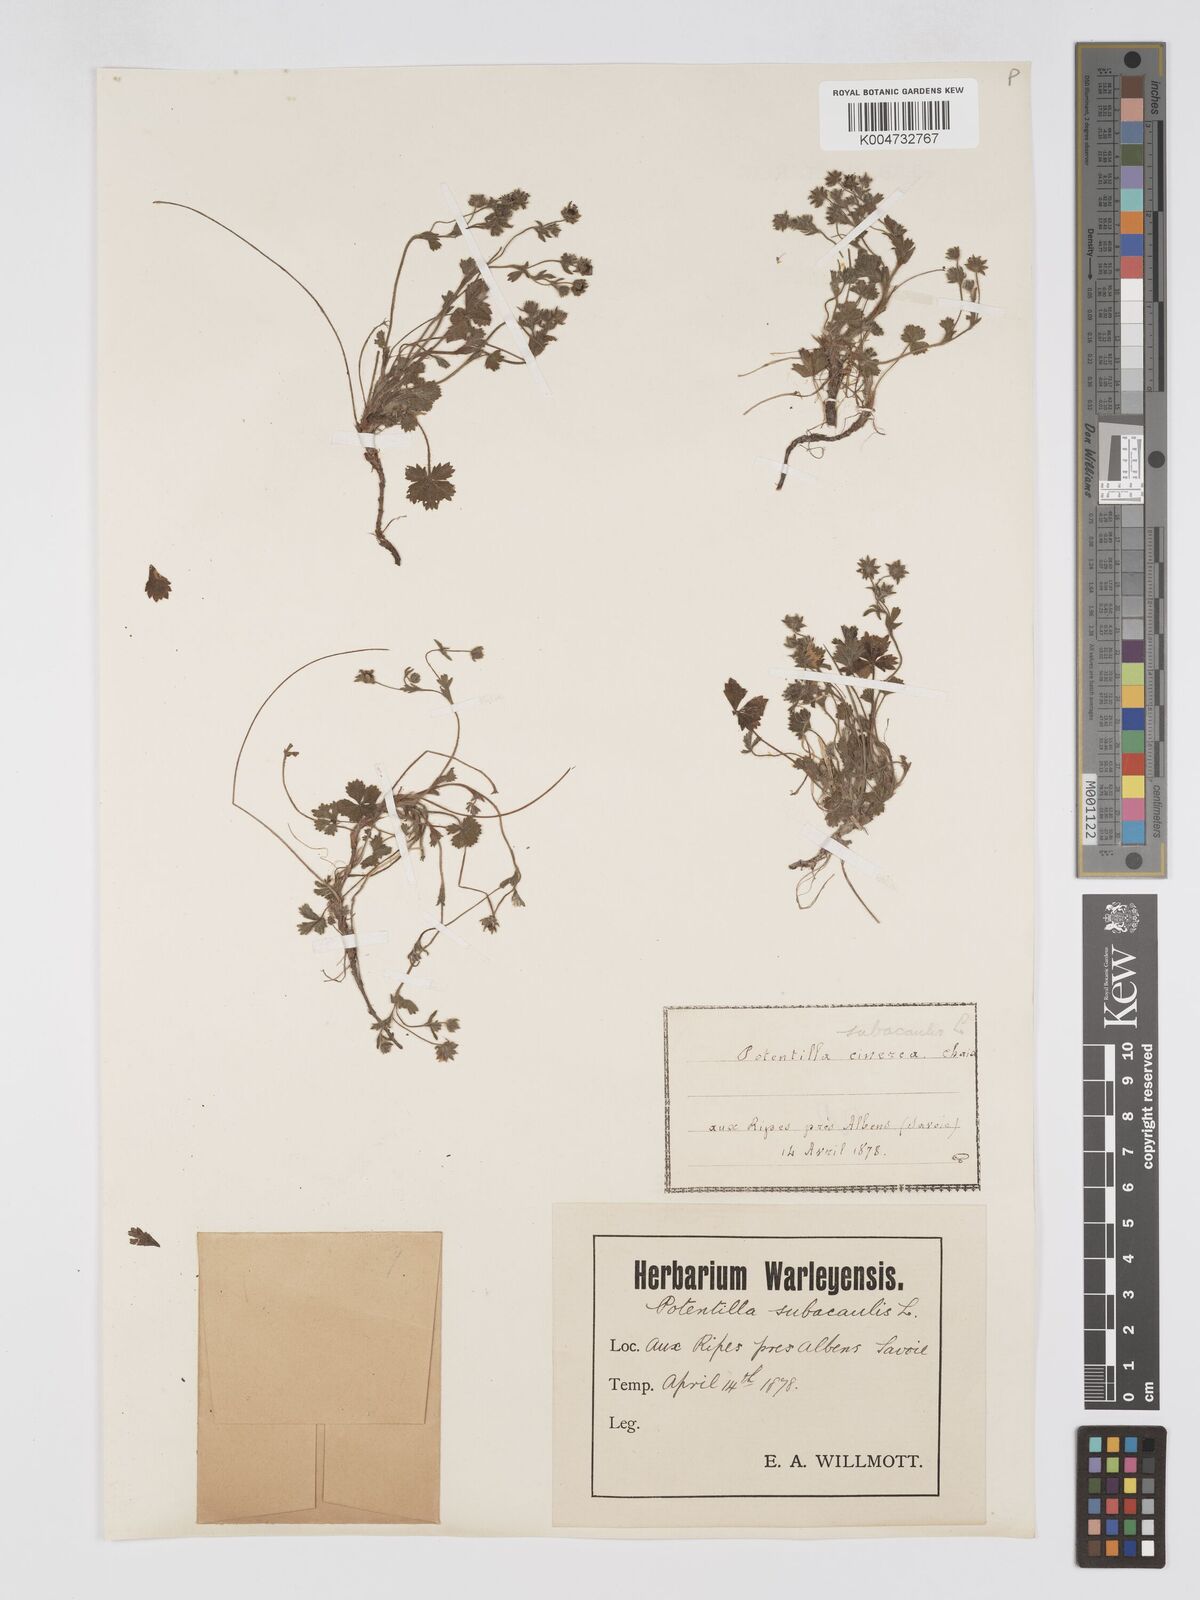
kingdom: Plantae
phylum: Tracheophyta
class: Magnoliopsida
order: Rosales
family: Rosaceae
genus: Potentilla
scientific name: Potentilla
